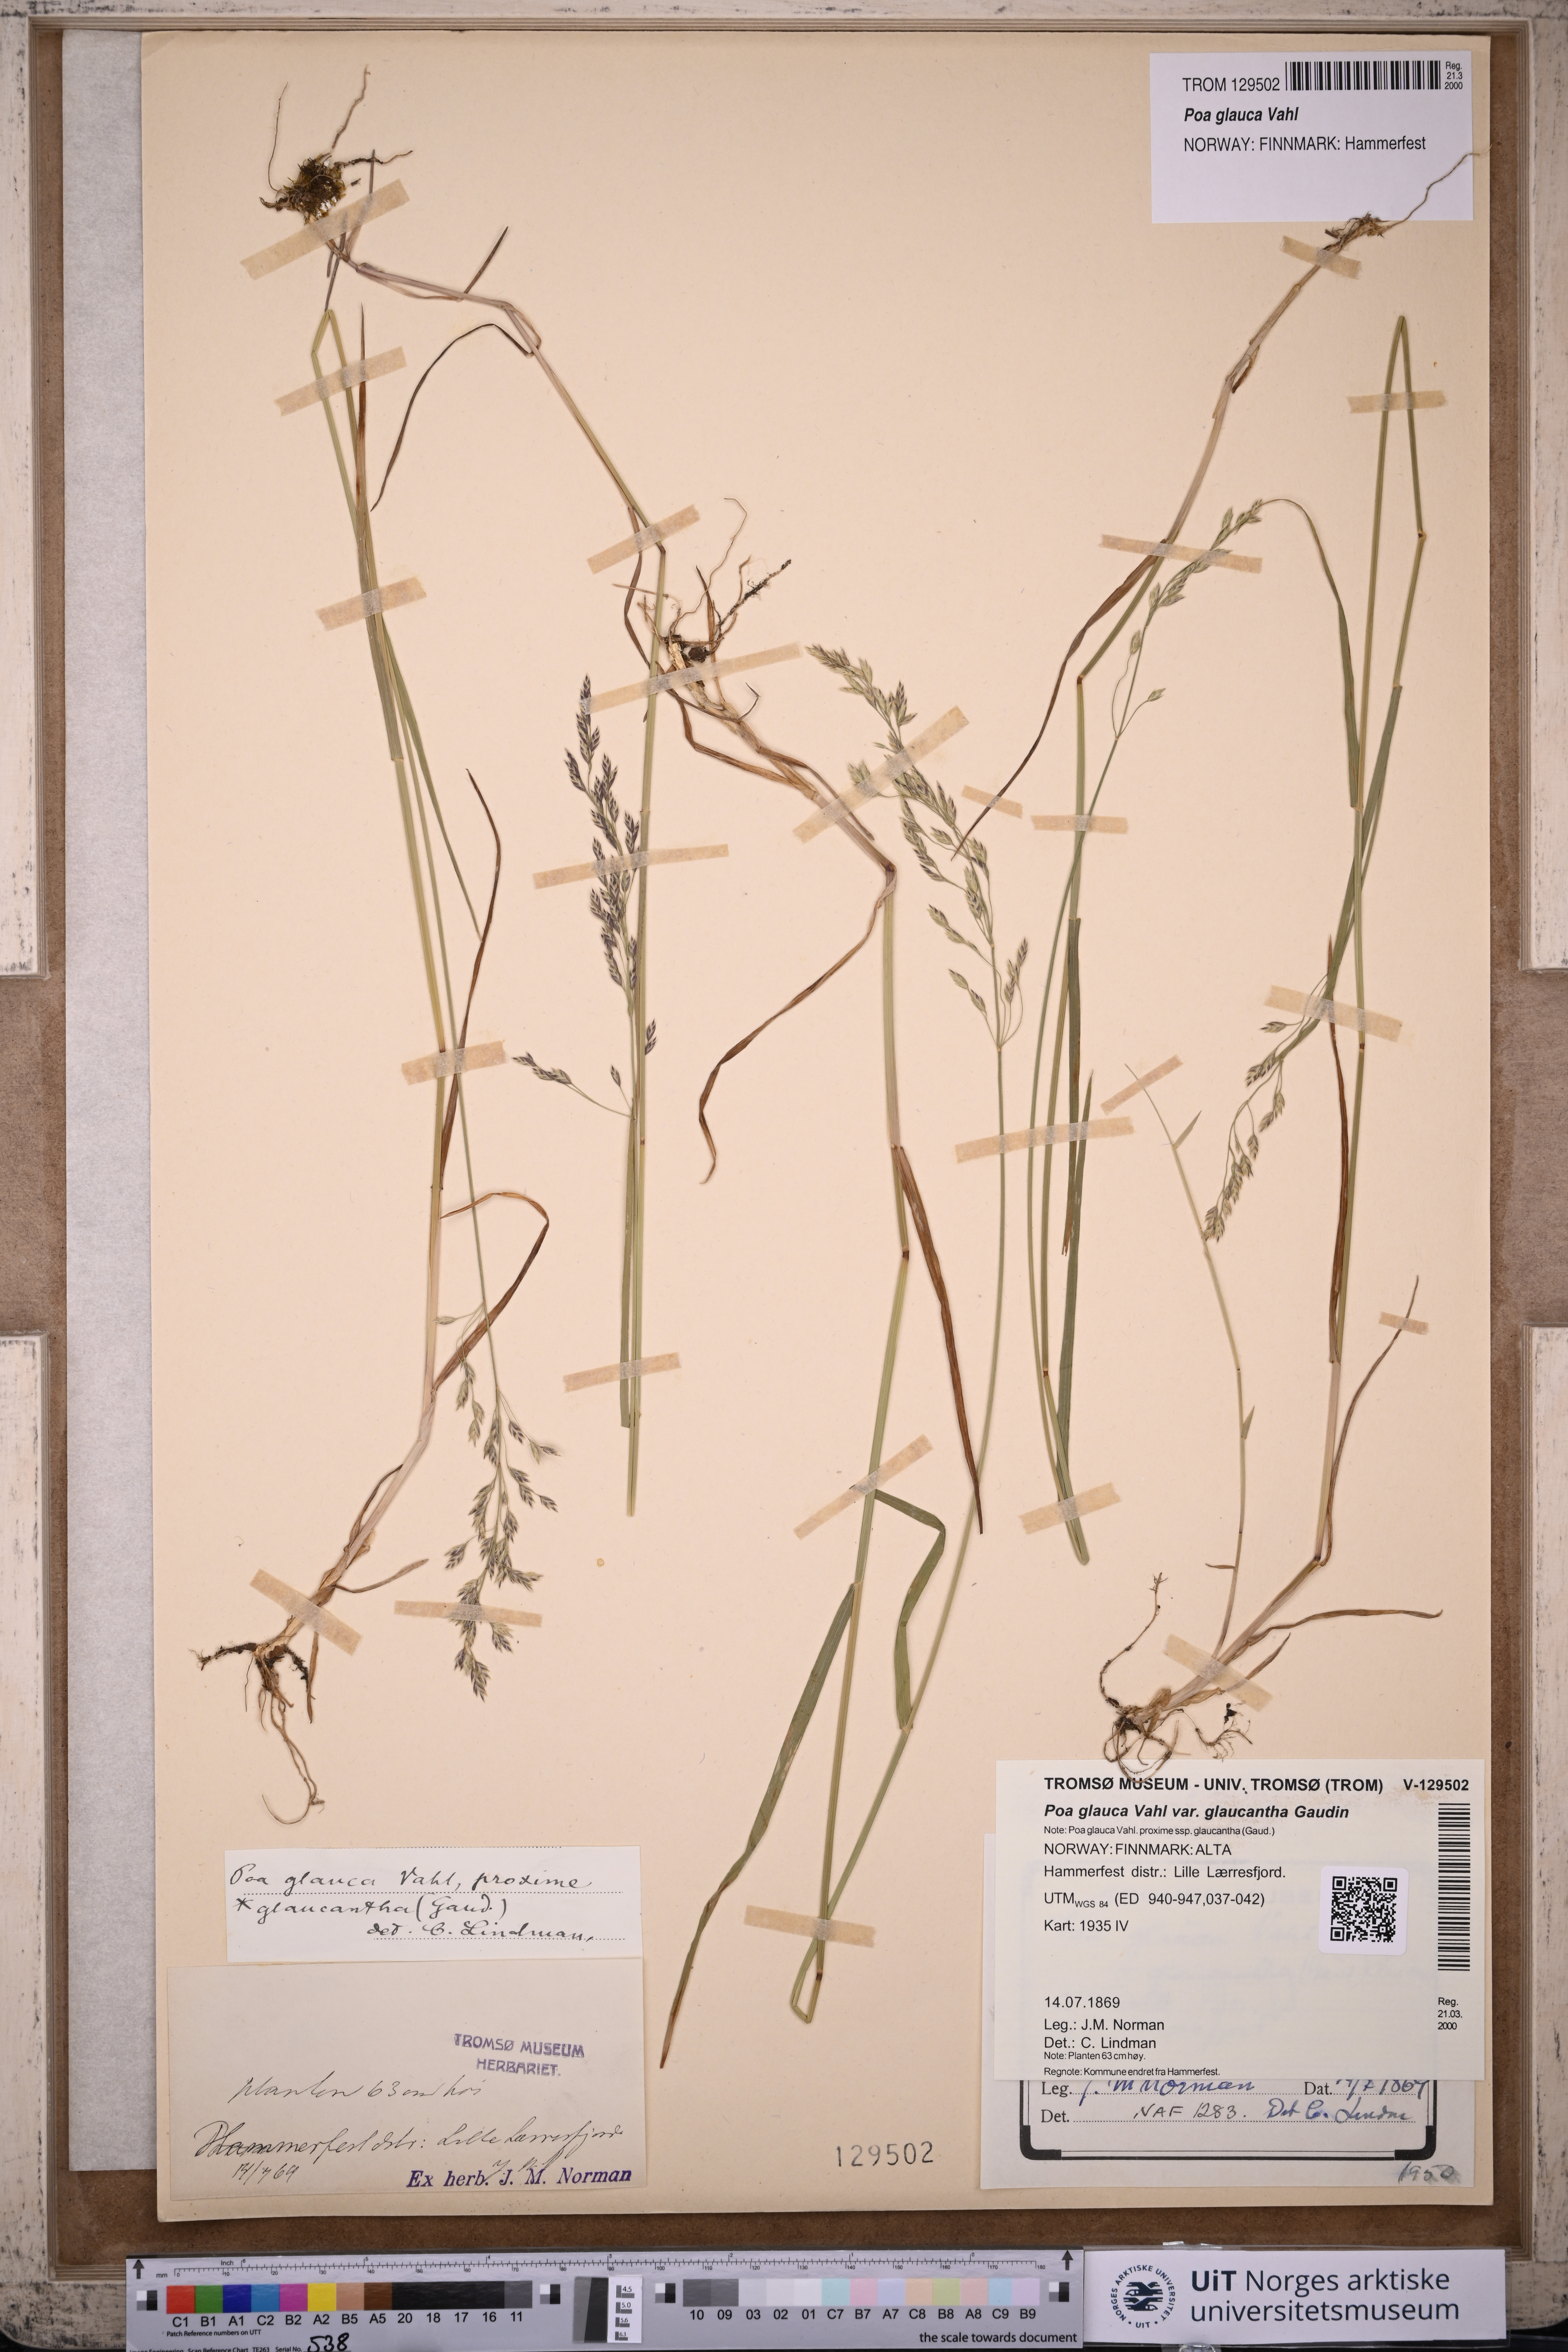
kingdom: Plantae
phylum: Tracheophyta
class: Liliopsida
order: Poales
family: Poaceae
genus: Poa
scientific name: Poa nemoralis
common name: Wood bluegrass
